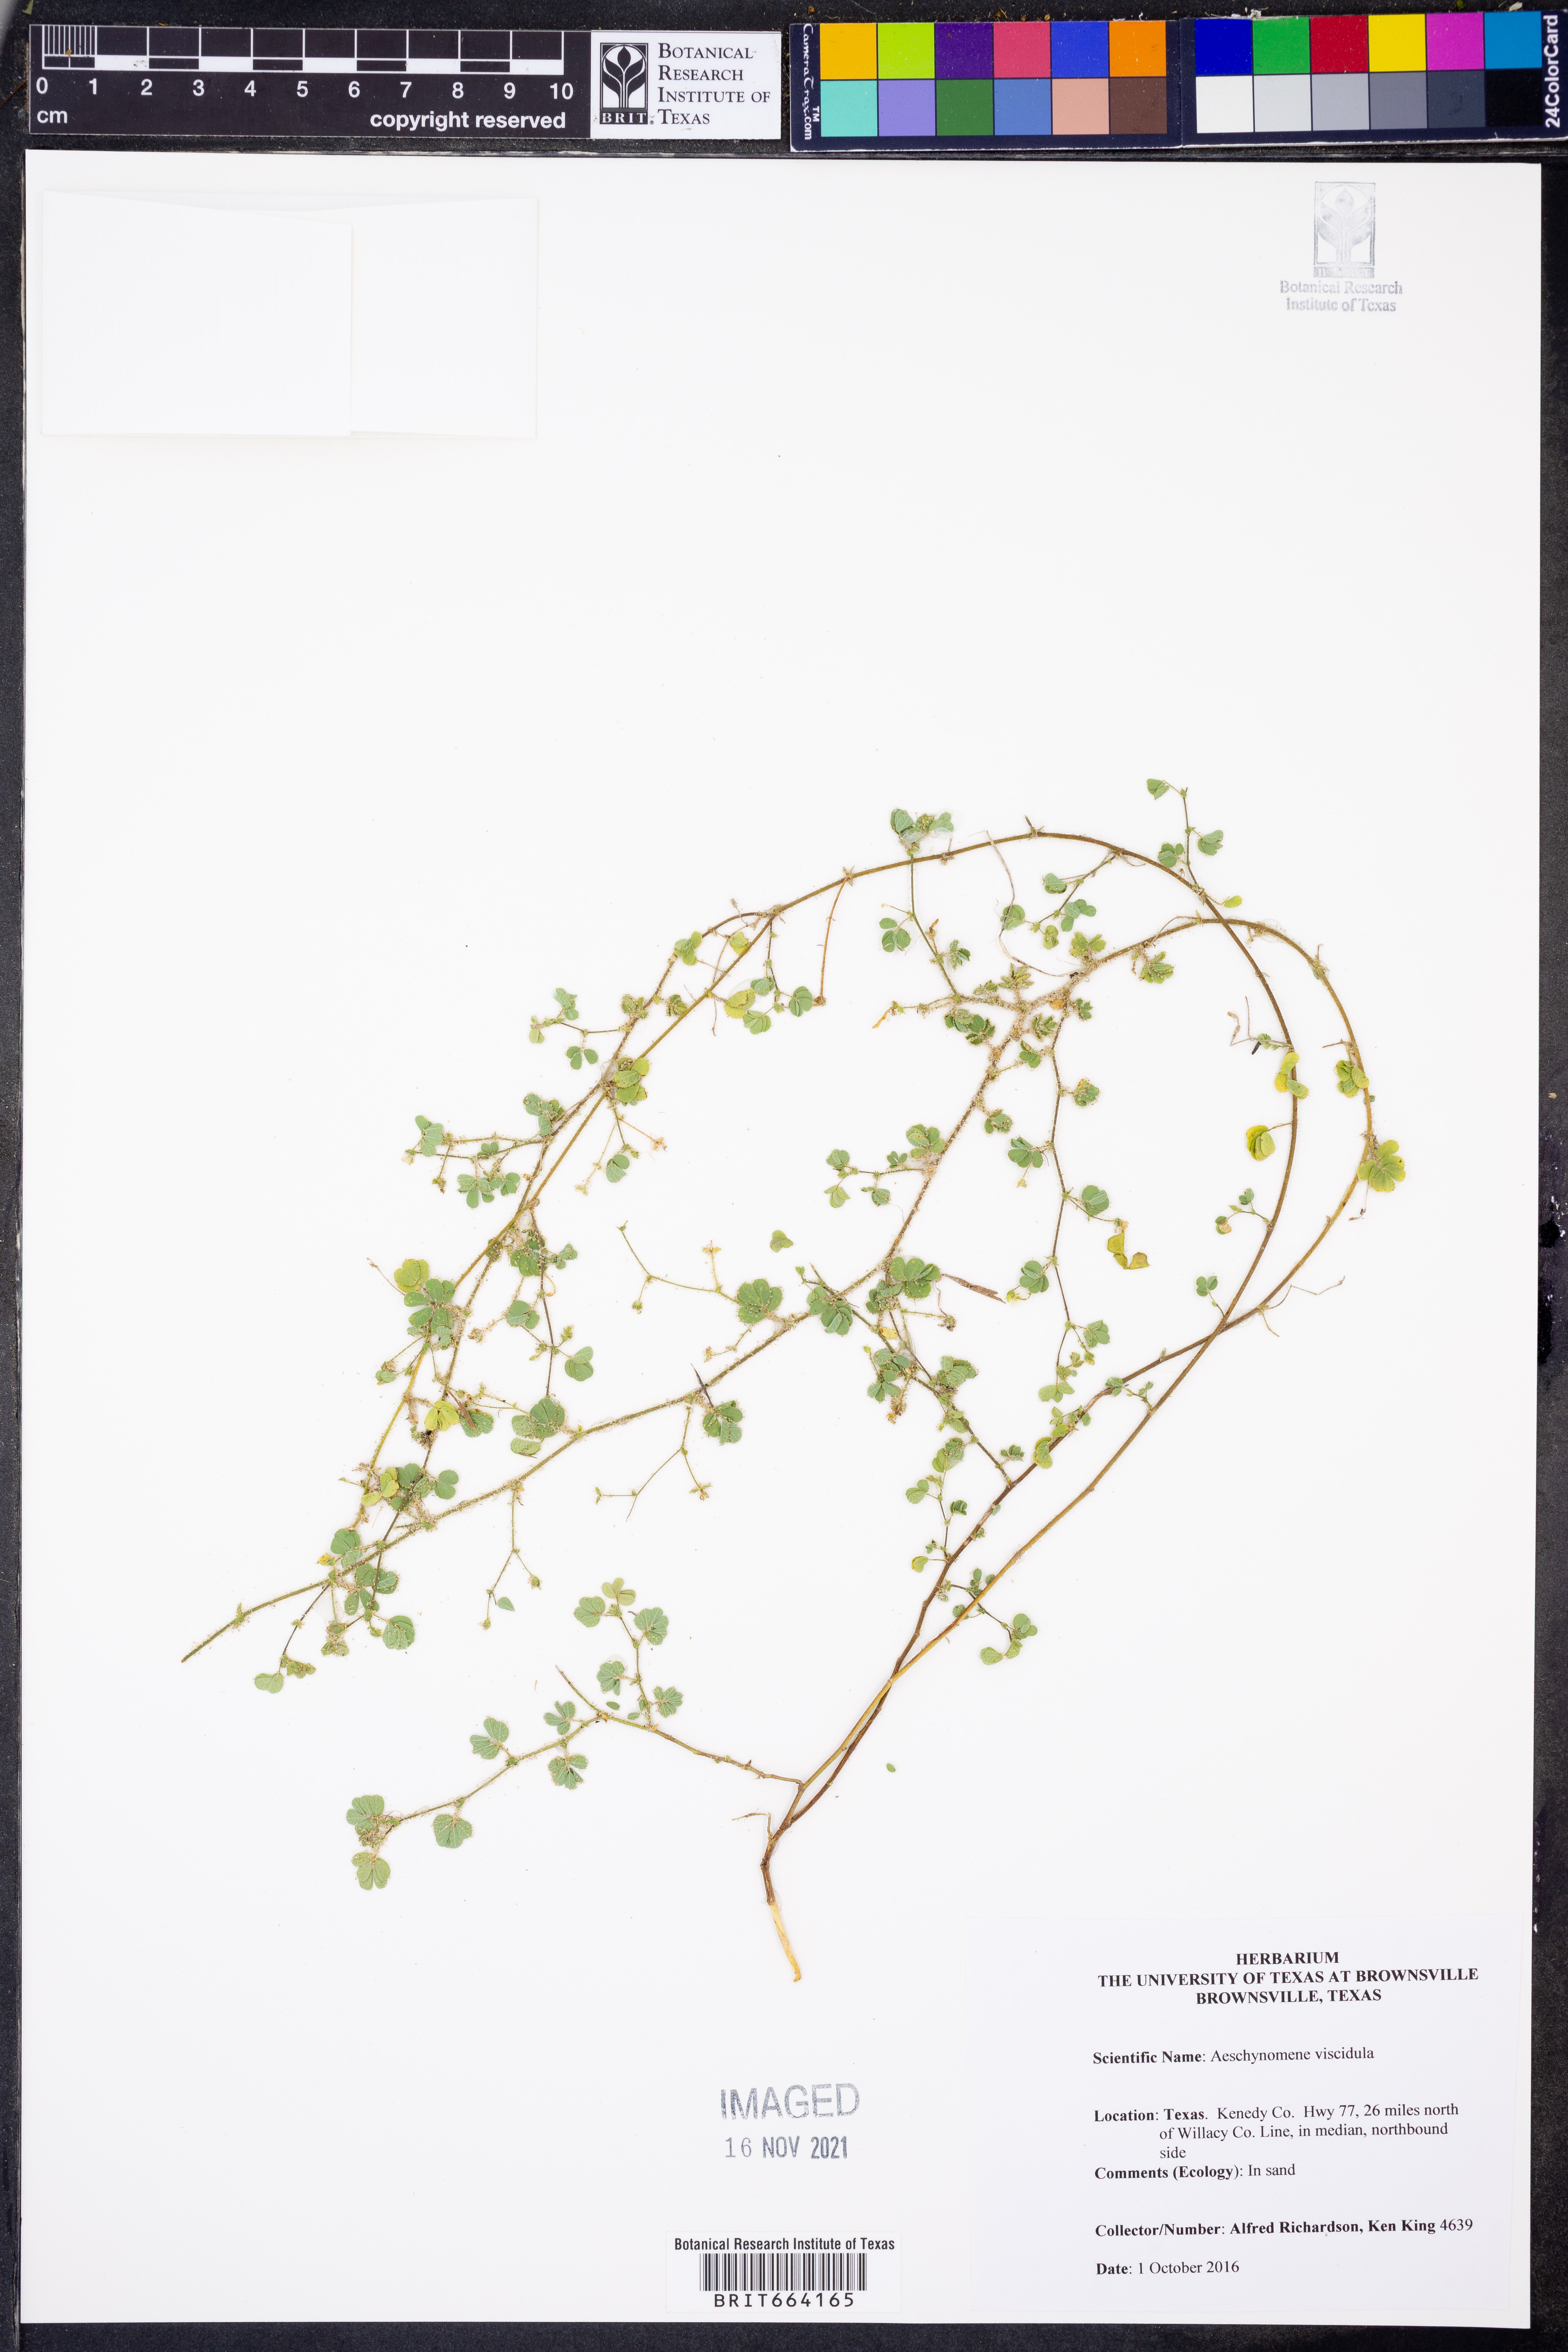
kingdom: Plantae
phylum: Tracheophyta
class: Magnoliopsida
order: Fabales
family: Fabaceae
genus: Aeschynomene
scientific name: Aeschynomene indica
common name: Indian jointvetch
